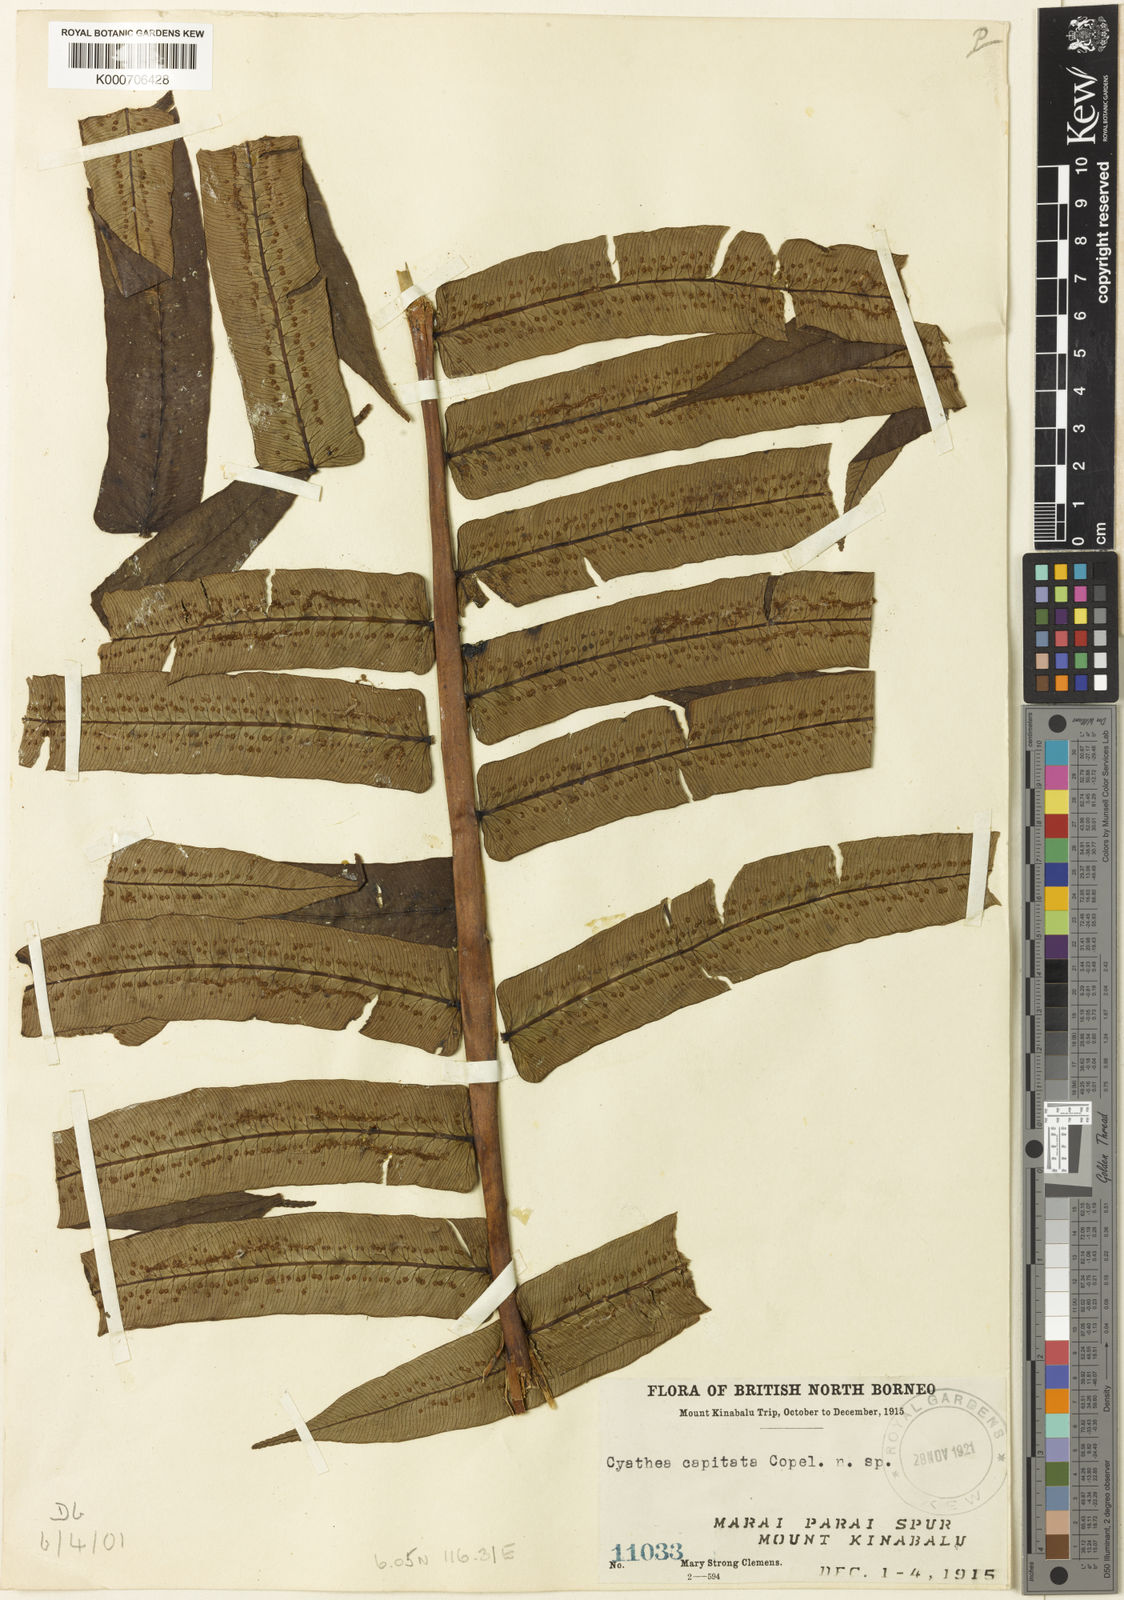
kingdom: Plantae
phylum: Tracheophyta
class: Polypodiopsida
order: Cyatheales
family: Cyatheaceae
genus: Sphaeropteris
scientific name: Sphaeropteris capitata
